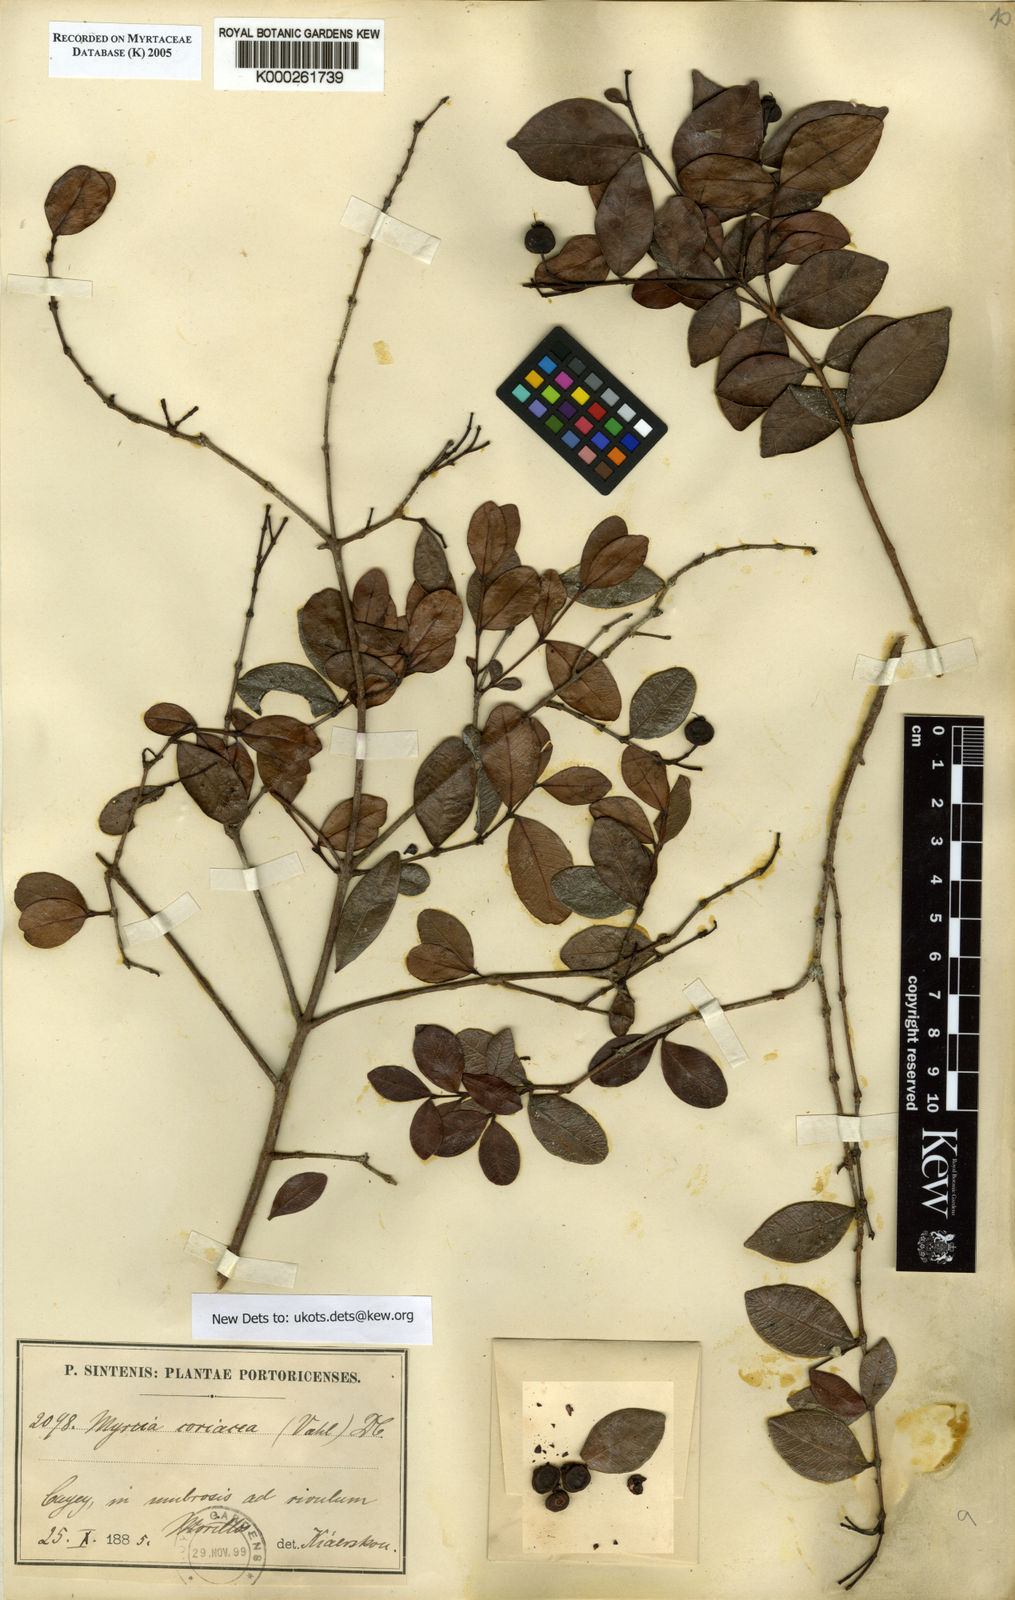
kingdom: Plantae
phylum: Tracheophyta
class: Magnoliopsida
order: Myrtales
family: Myrtaceae
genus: Myrcia
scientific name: Myrcia guianensis
